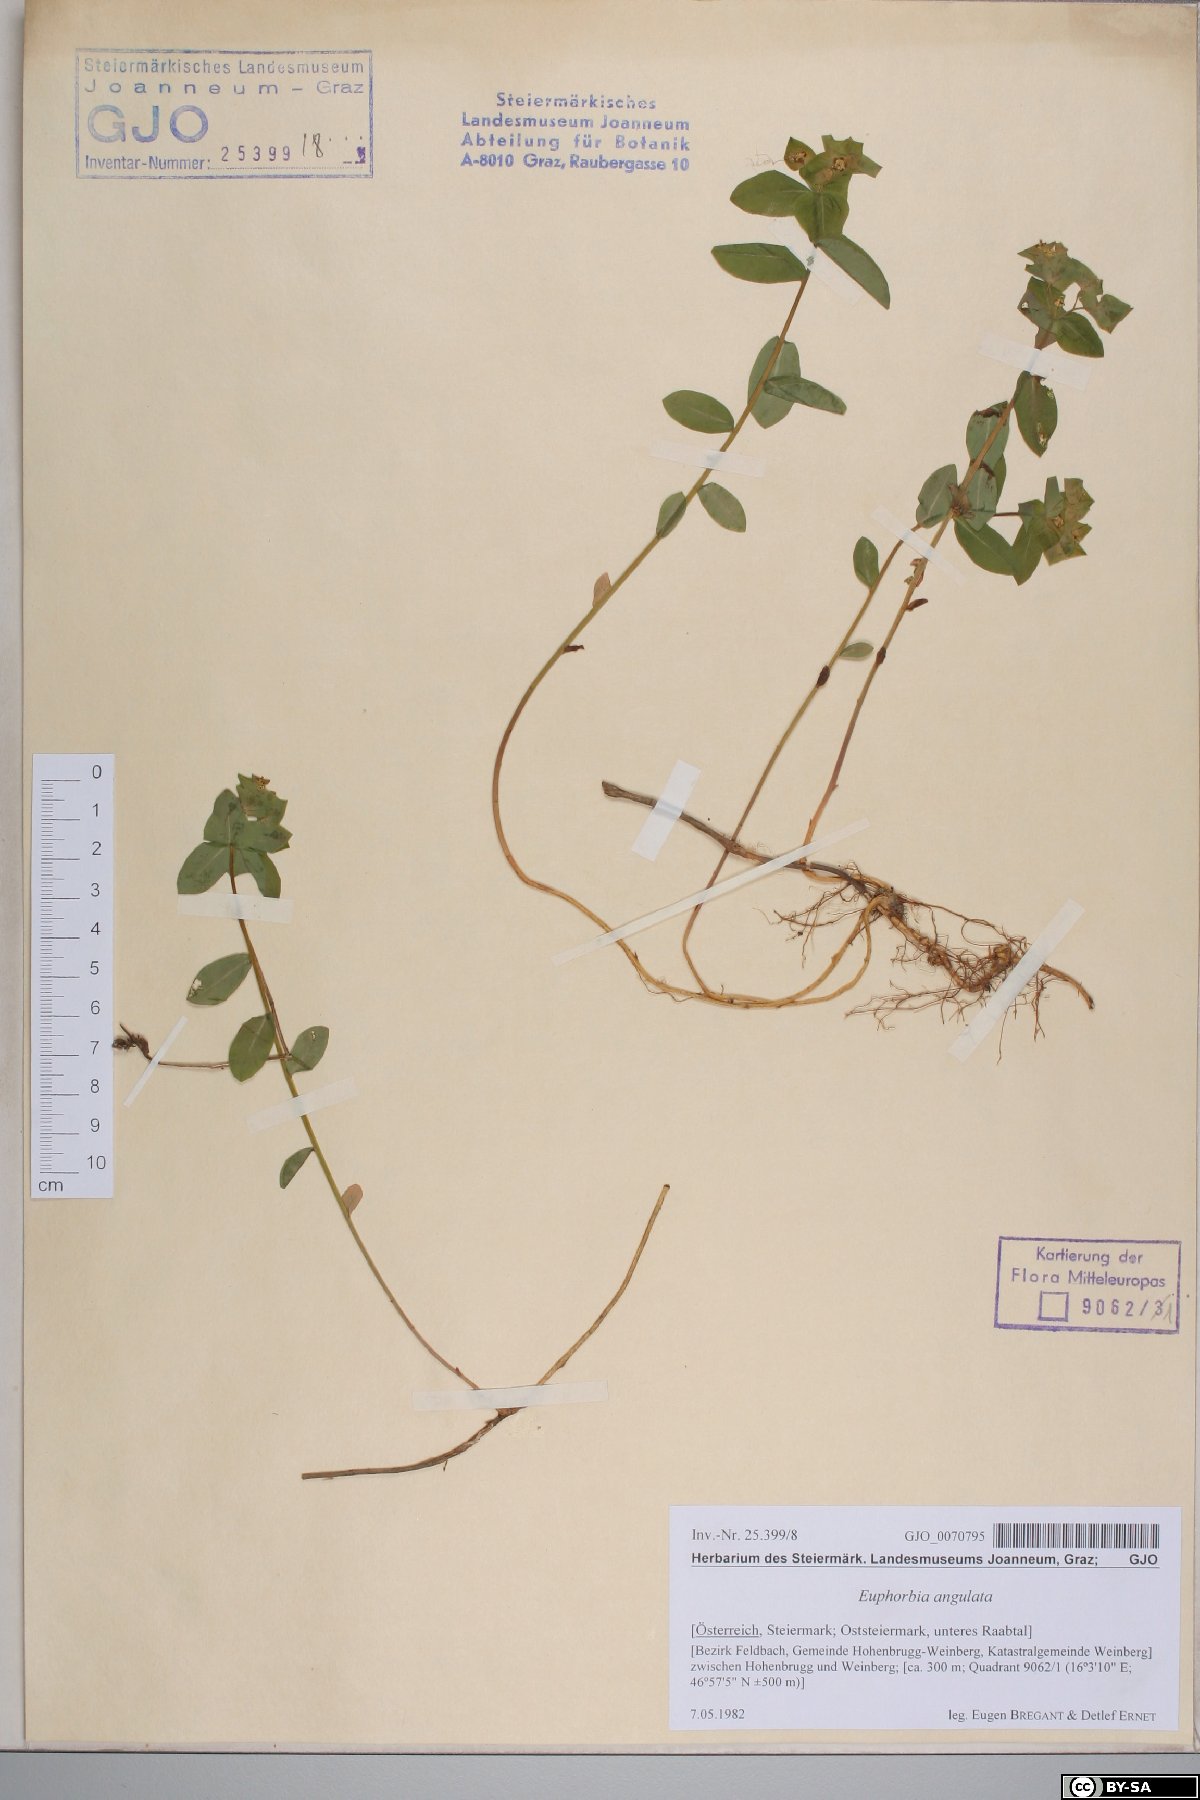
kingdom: Plantae
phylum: Tracheophyta
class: Magnoliopsida
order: Malpighiales
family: Euphorbiaceae
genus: Euphorbia
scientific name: Euphorbia angulata
